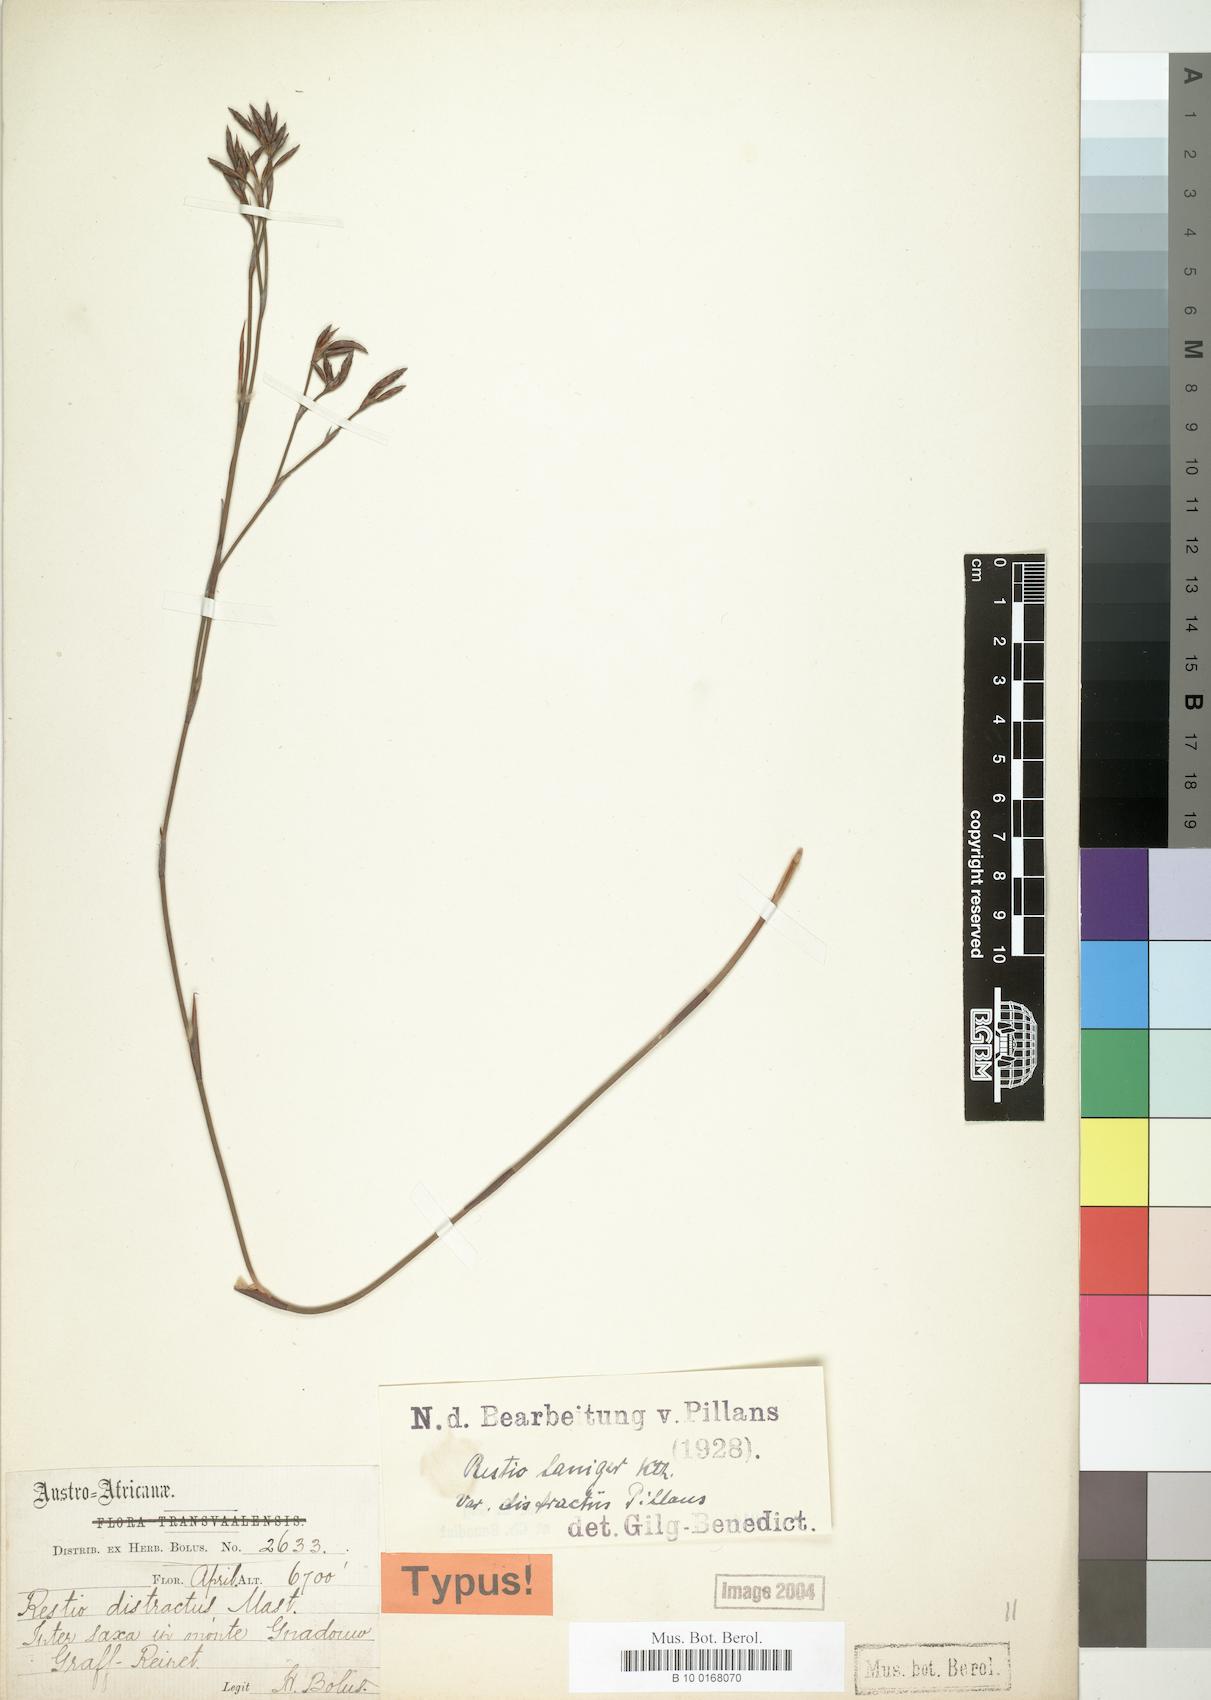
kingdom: Plantae
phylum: Tracheophyta
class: Liliopsida
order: Poales
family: Restionaceae
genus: Restio
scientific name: Restio distractus
